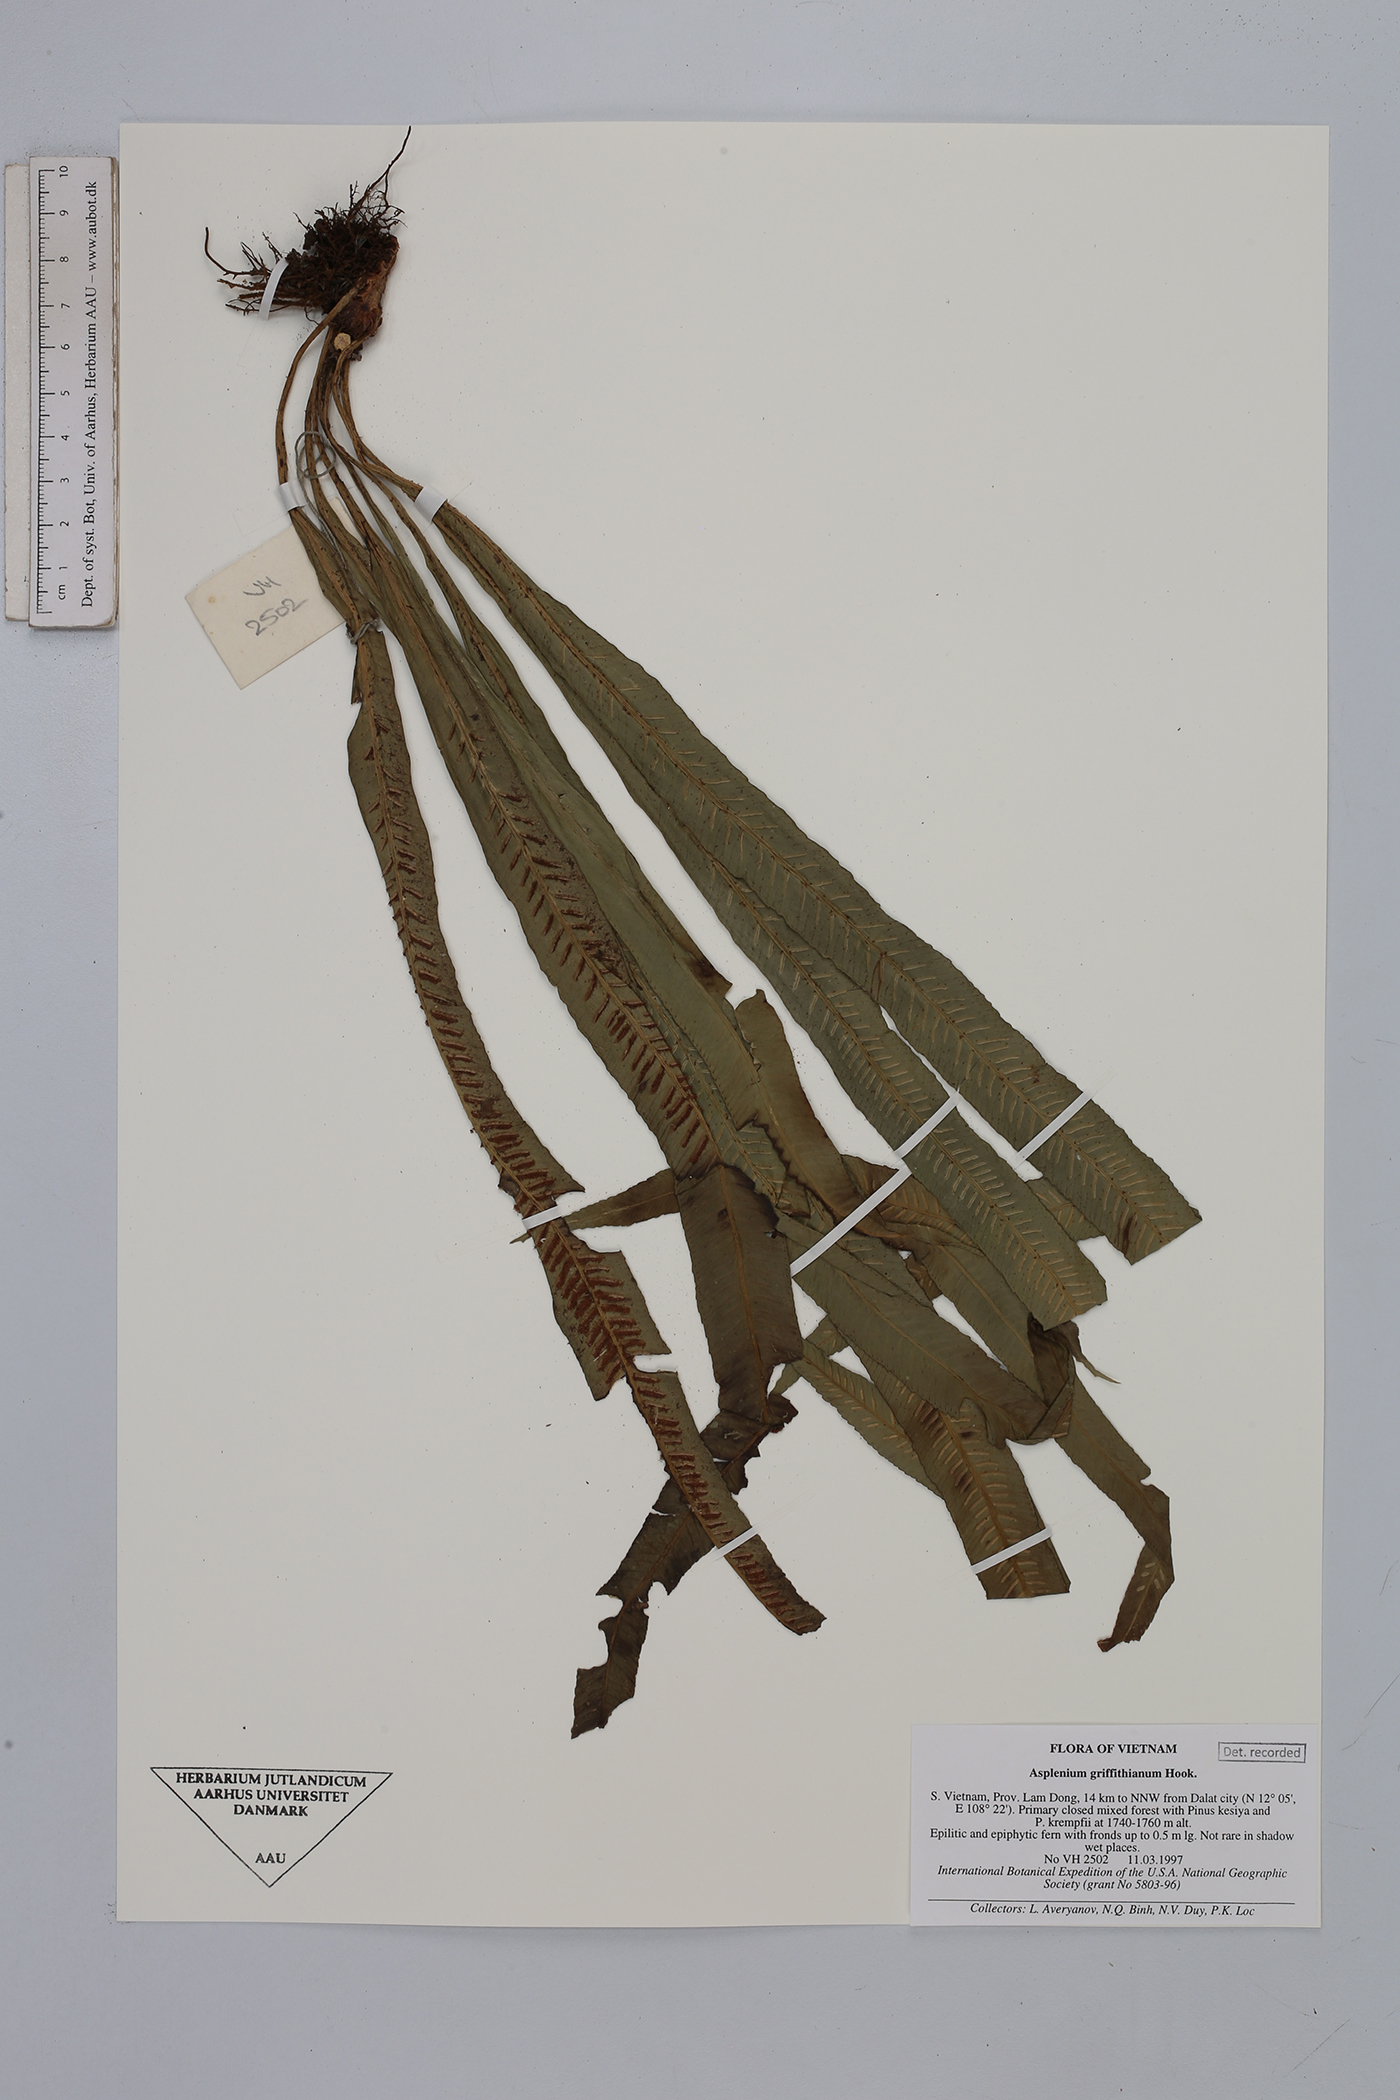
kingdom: Plantae
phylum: Tracheophyta
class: Polypodiopsida
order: Polypodiales
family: Aspleniaceae
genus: Asplenium
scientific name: Asplenium griffithianum
